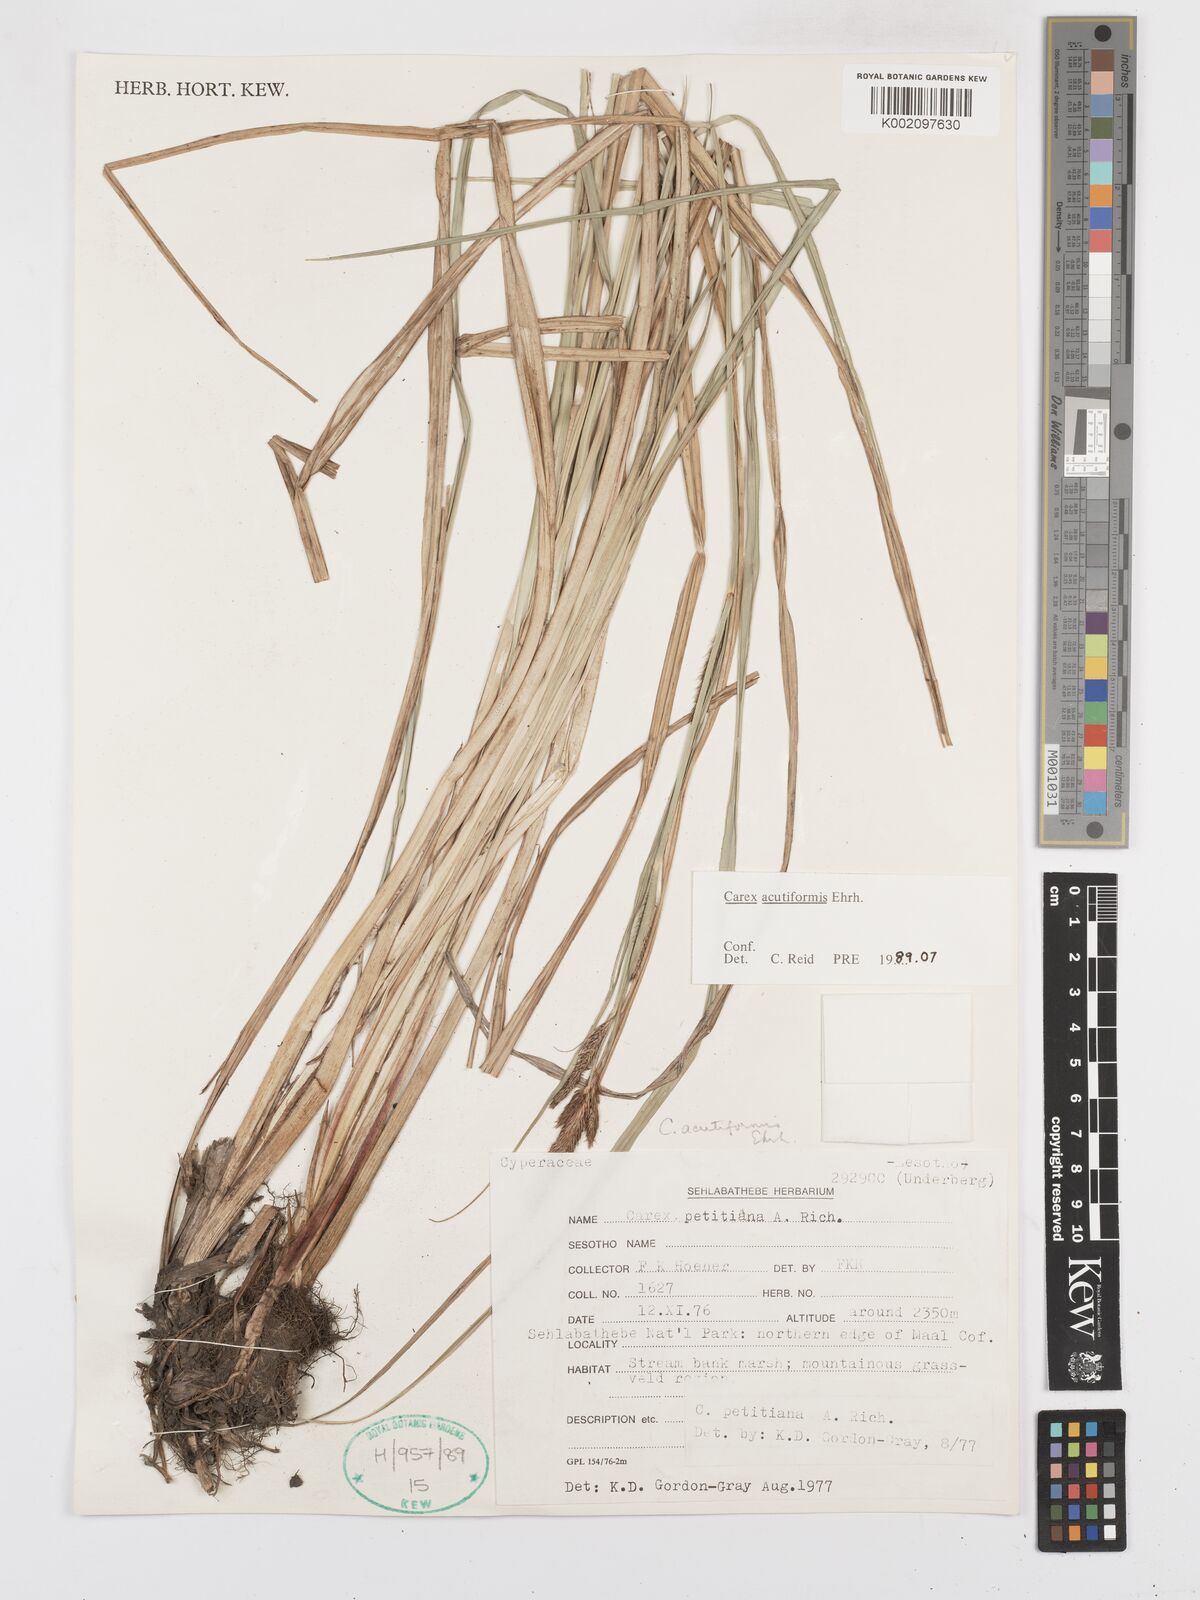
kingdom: Plantae
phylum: Tracheophyta
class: Liliopsida
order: Poales
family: Cyperaceae
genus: Carex
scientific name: Carex acutiformis
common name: Lesser pond-sedge
